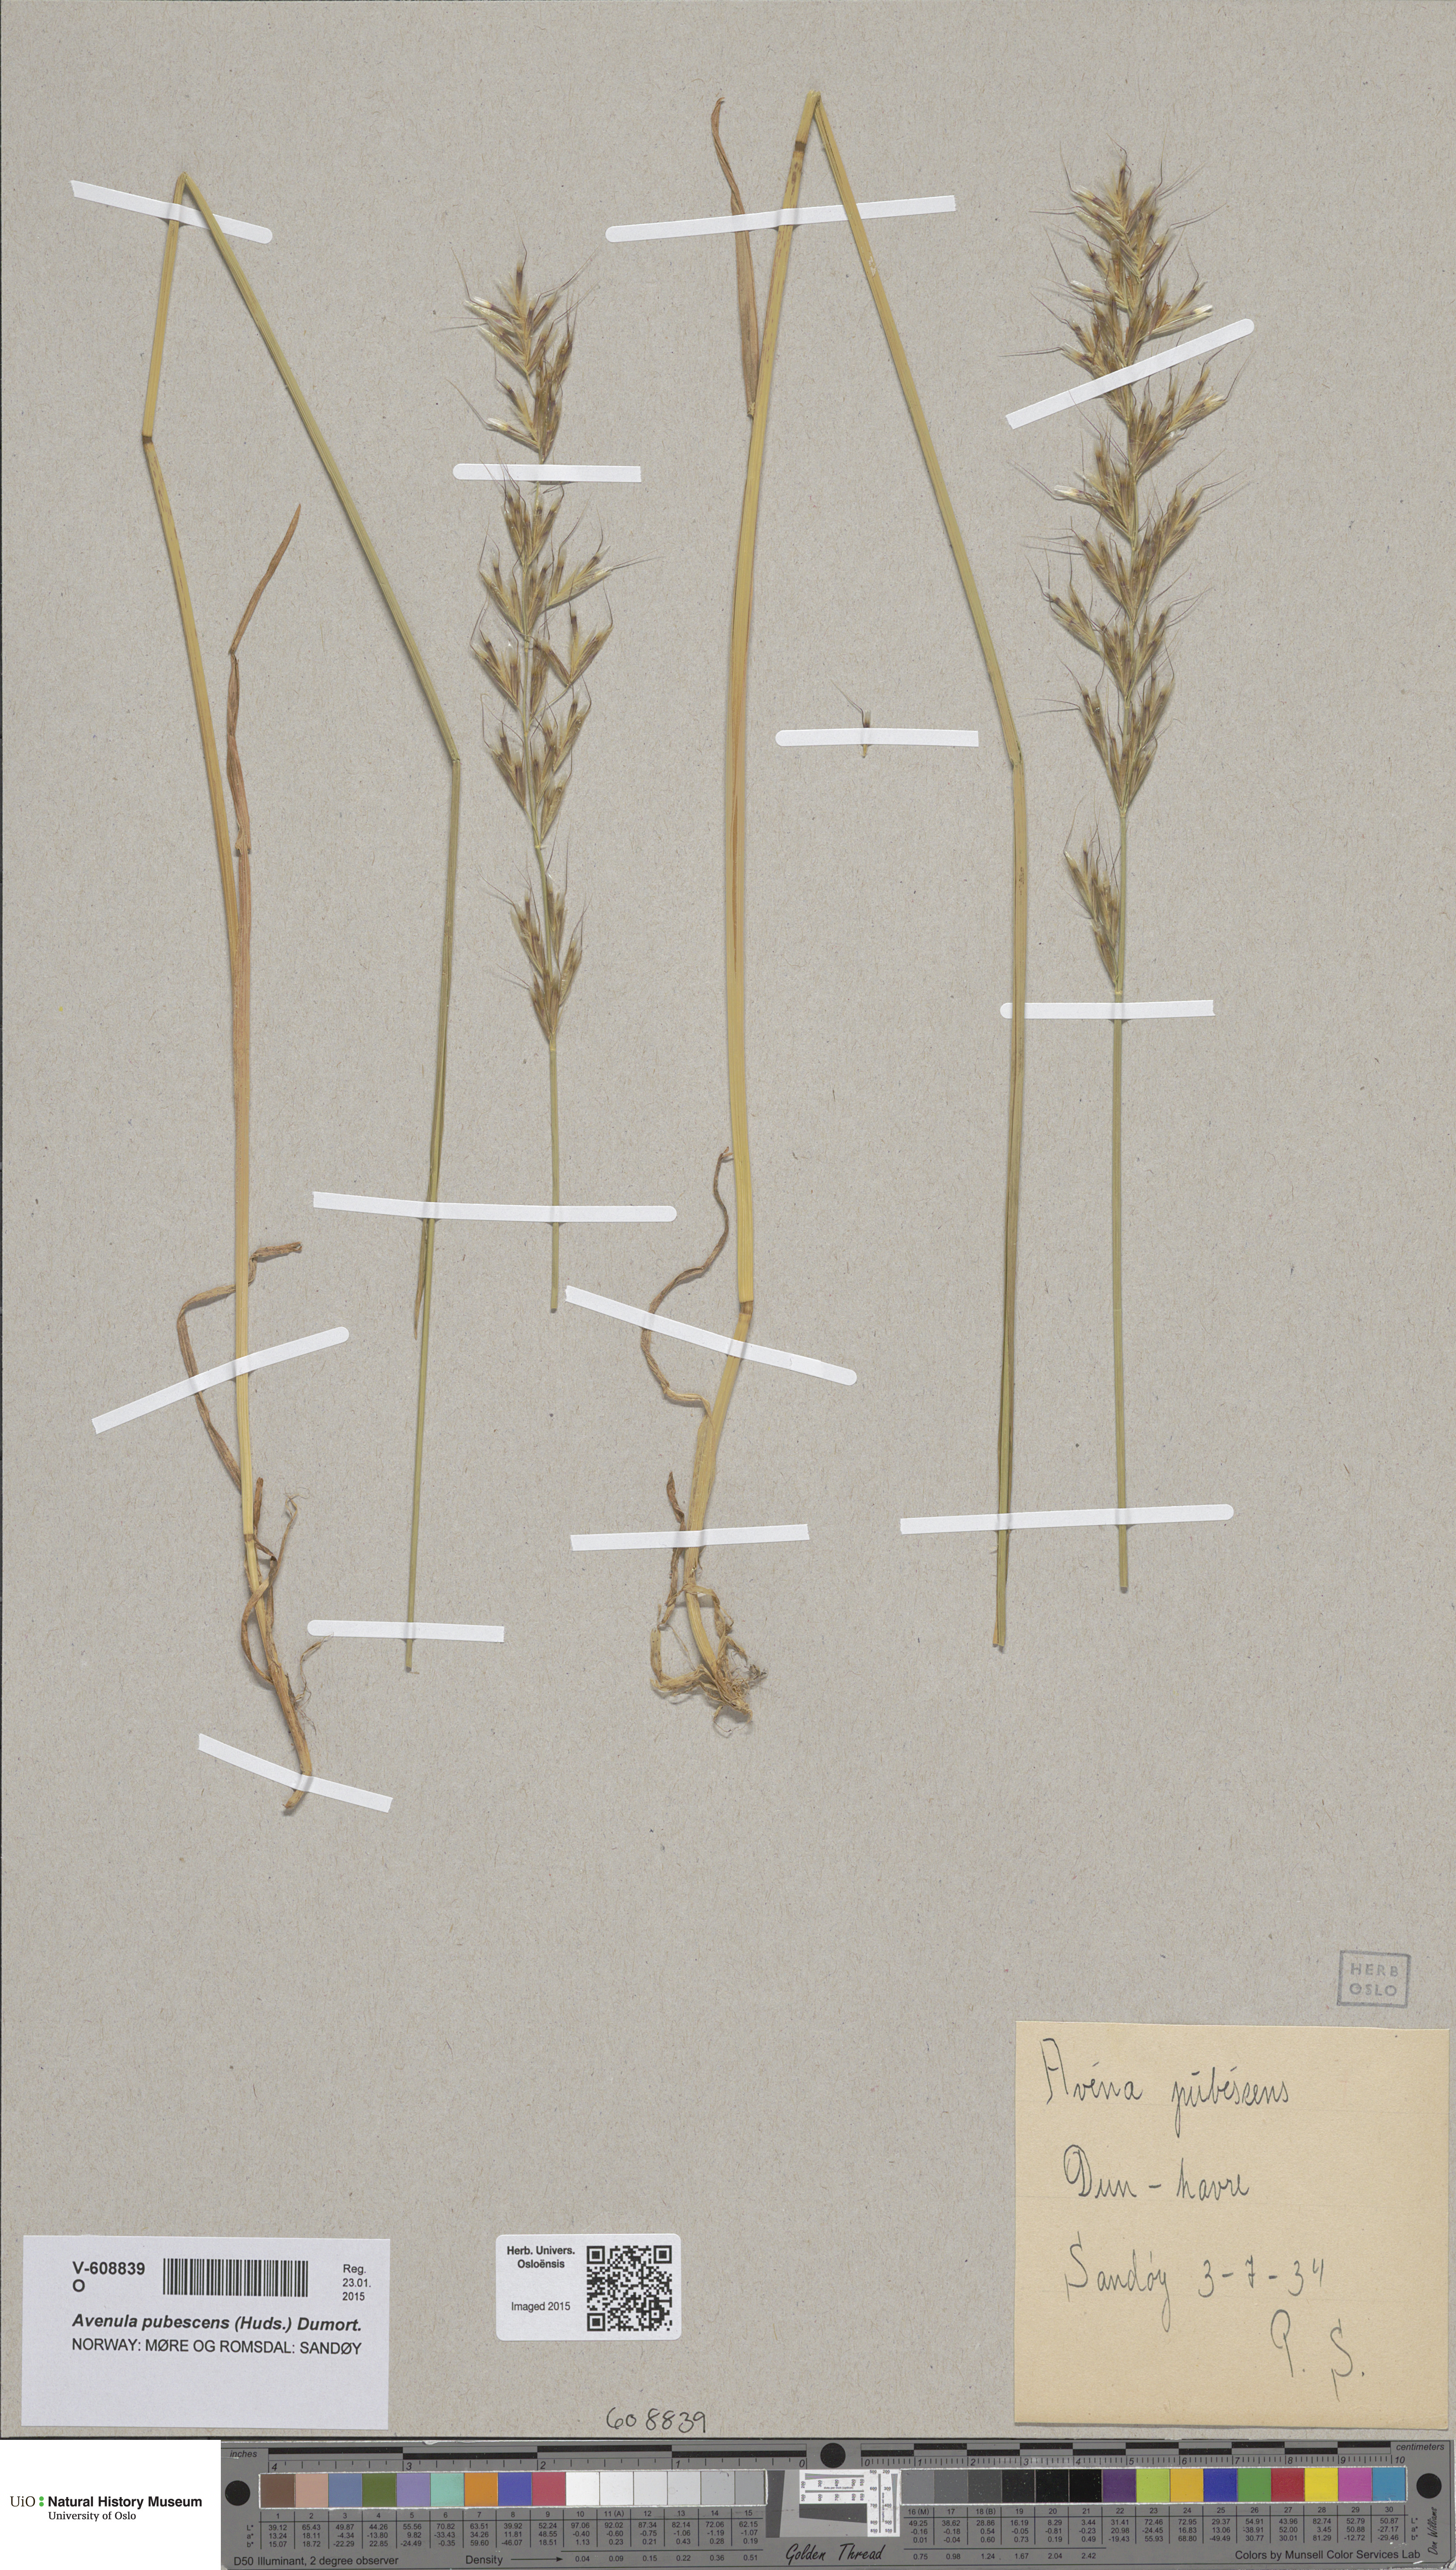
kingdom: Plantae
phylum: Tracheophyta
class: Liliopsida
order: Poales
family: Poaceae
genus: Avenula
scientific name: Avenula pubescens
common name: Downy alpine oatgrass
